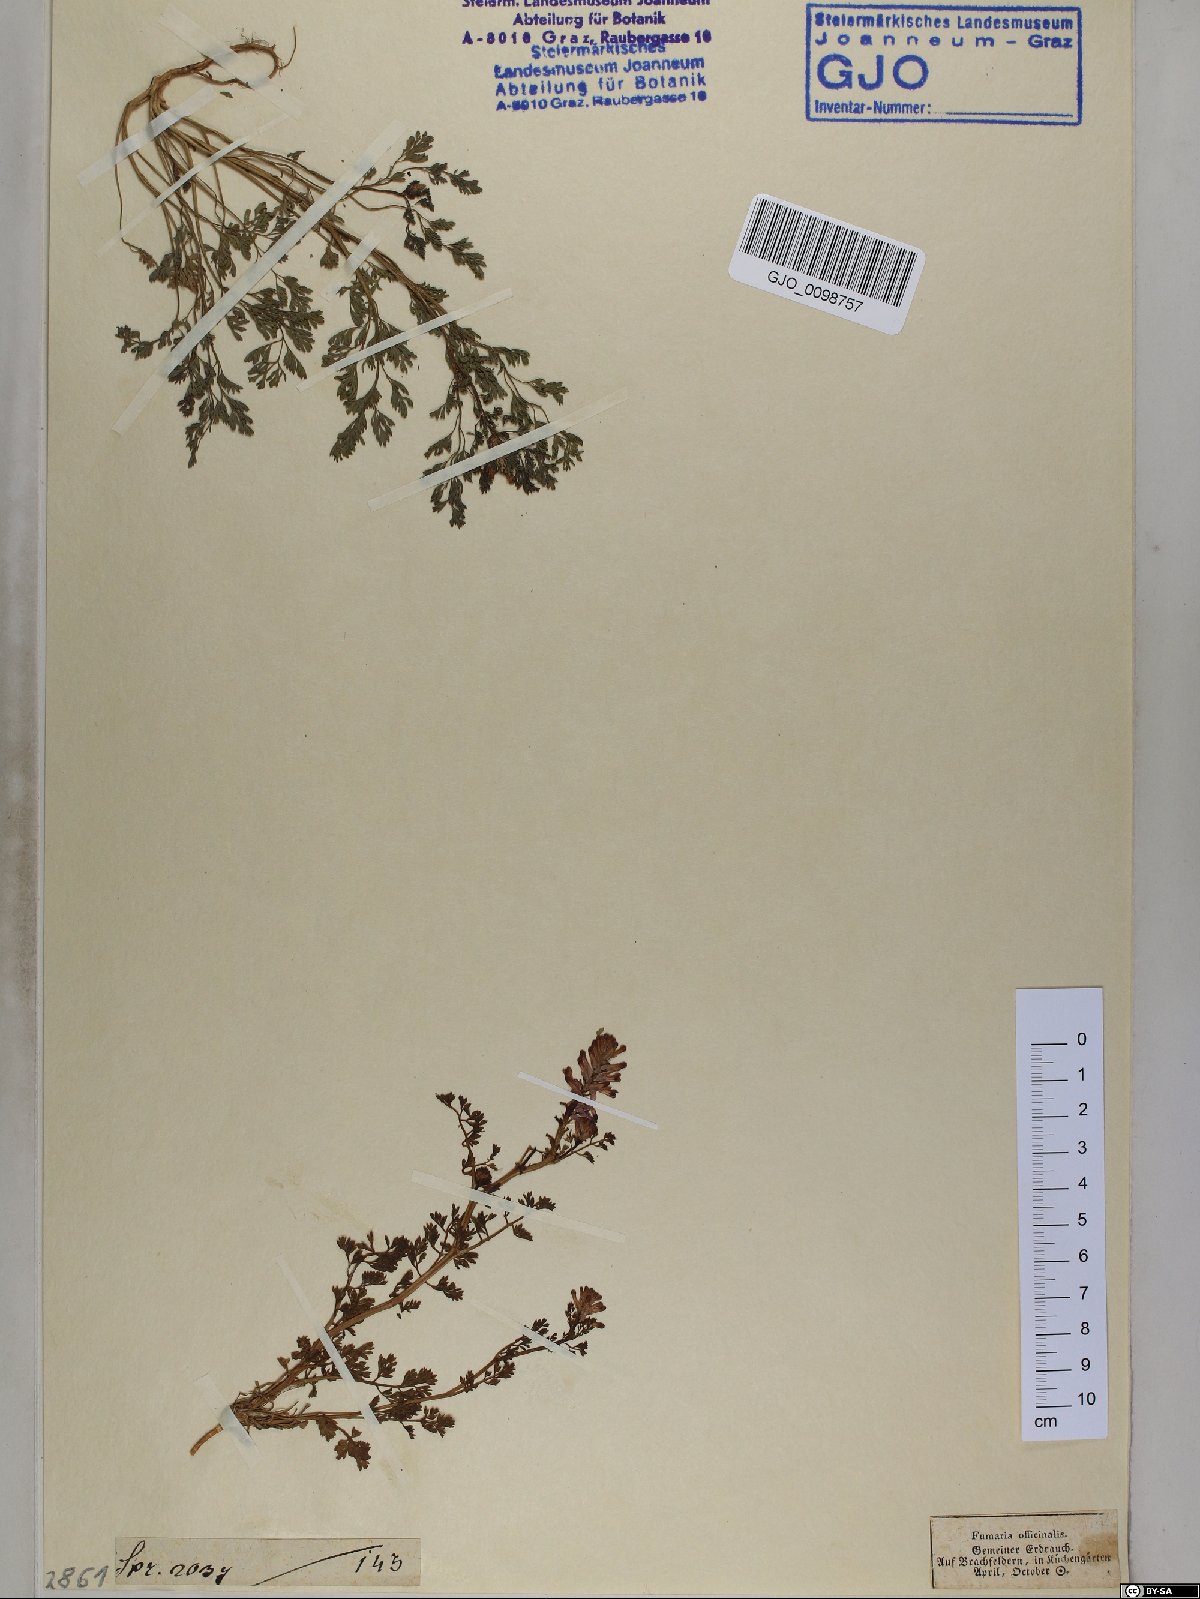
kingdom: Plantae
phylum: Tracheophyta
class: Magnoliopsida
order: Ranunculales
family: Papaveraceae
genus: Fumaria
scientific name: Fumaria officinalis
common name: Common fumitory
